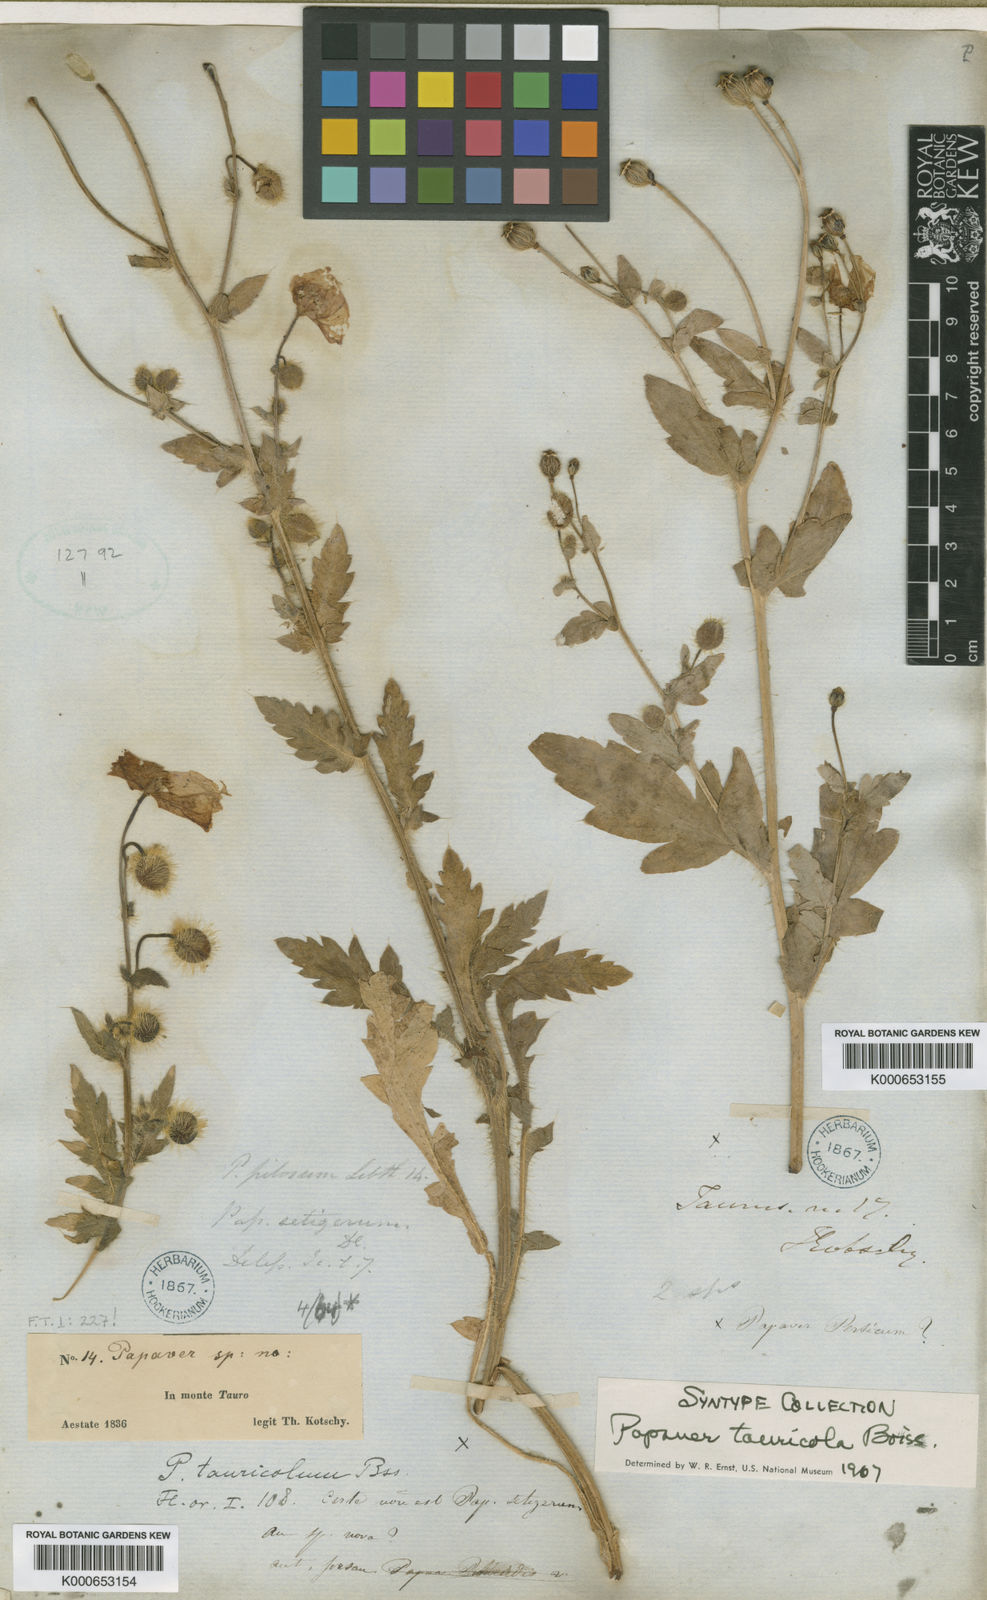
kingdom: Plantae
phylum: Tracheophyta
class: Magnoliopsida
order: Ranunculales
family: Papaveraceae
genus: Papaver
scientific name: Papaver persicum
